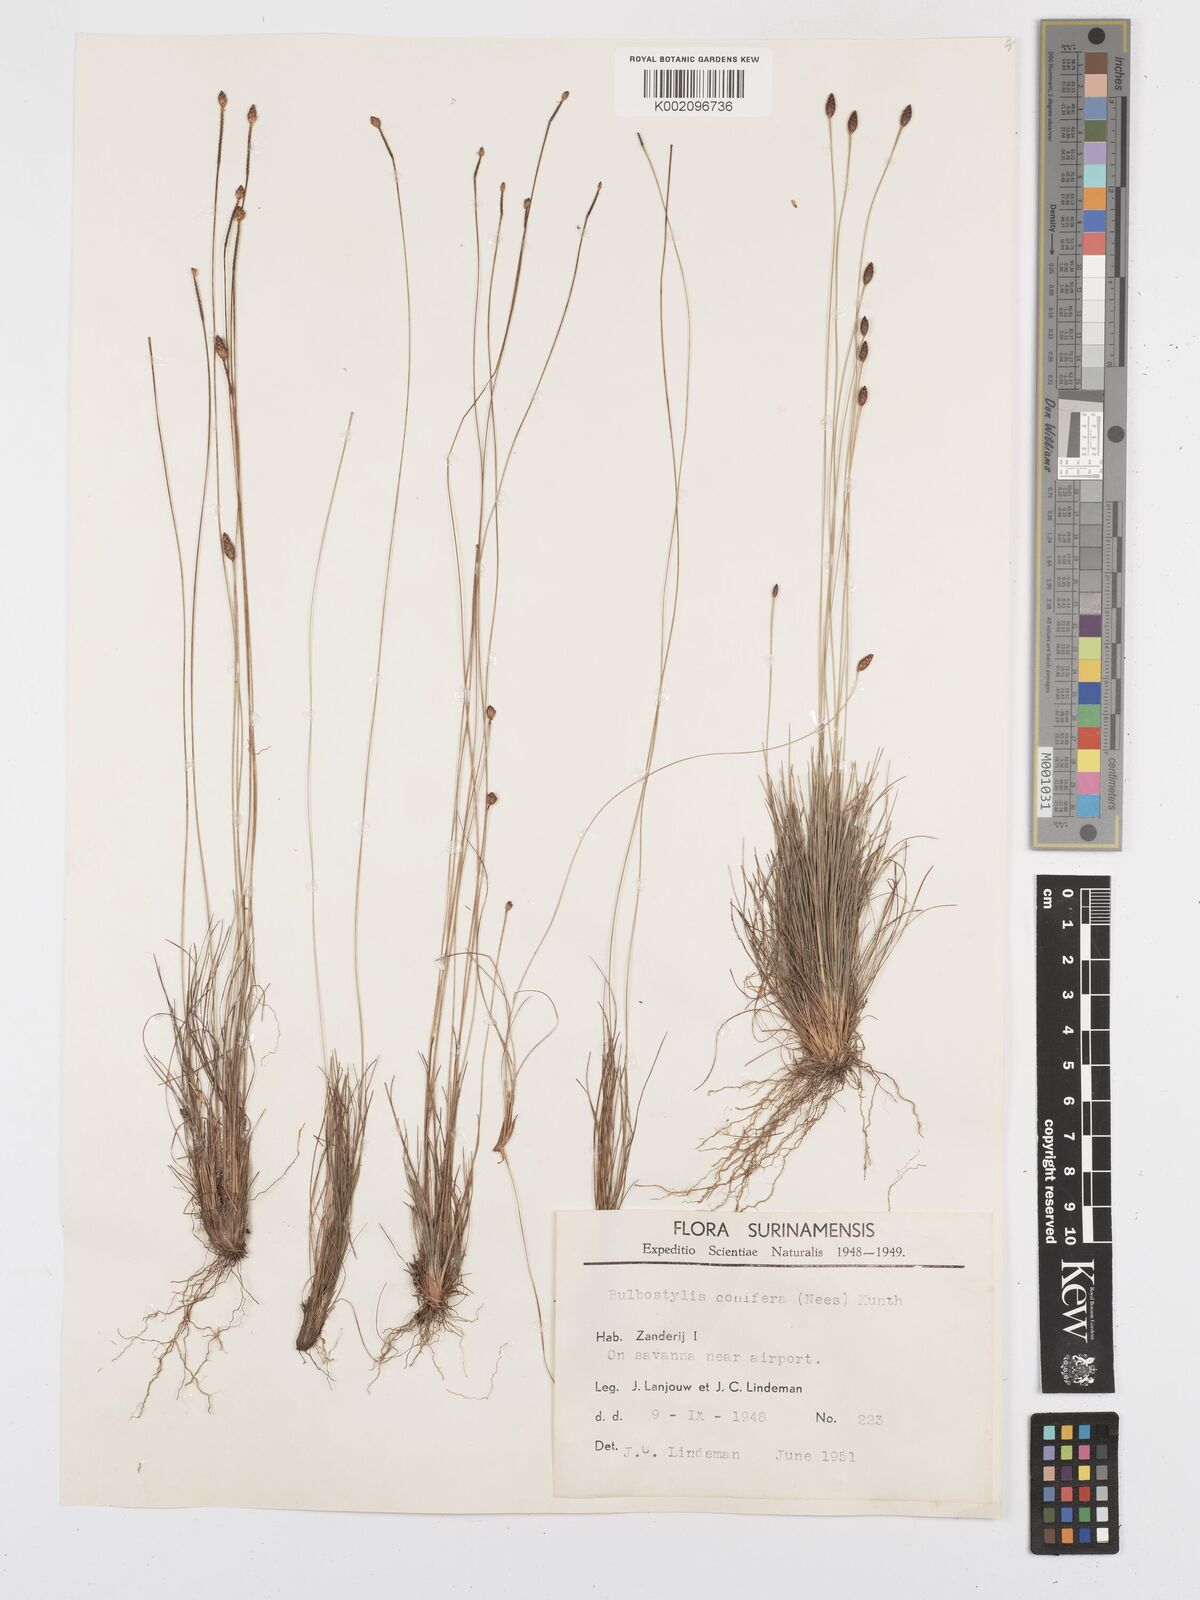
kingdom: Plantae
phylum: Tracheophyta
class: Liliopsida
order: Poales
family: Cyperaceae
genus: Bulbostylis
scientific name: Bulbostylis conifera
